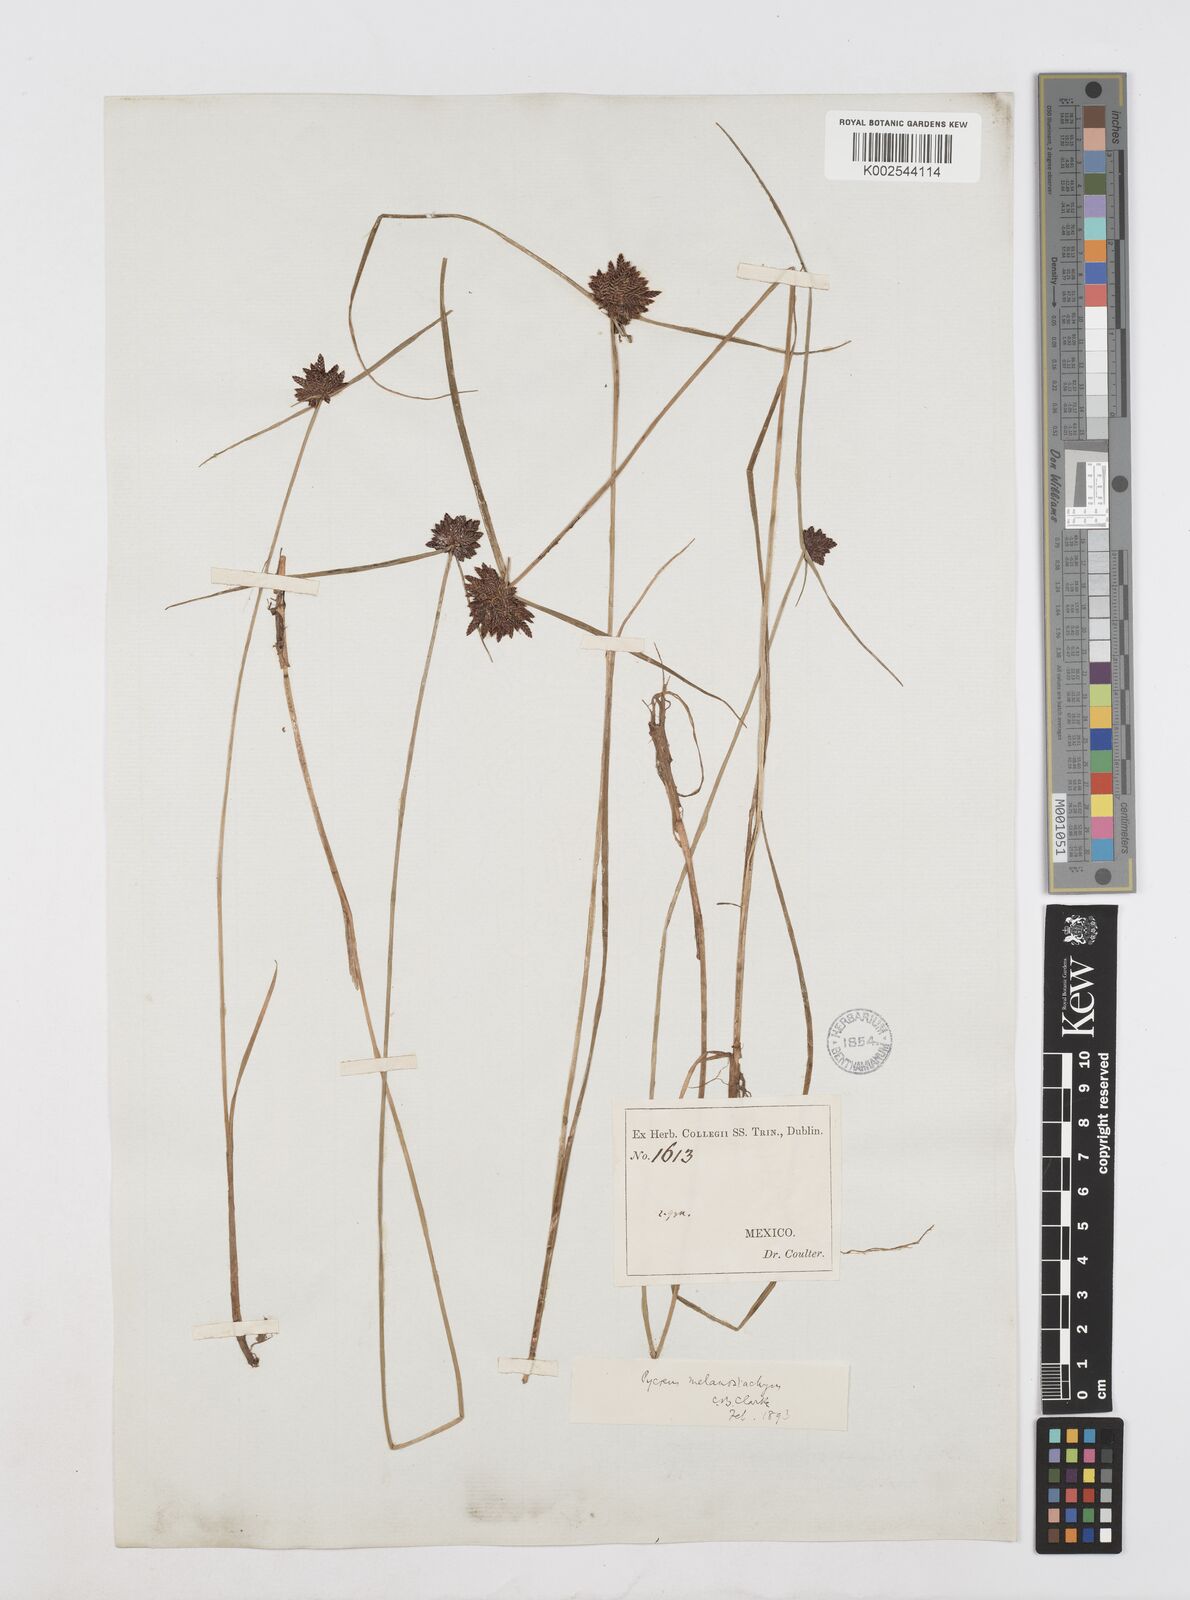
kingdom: Plantae
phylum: Tracheophyta
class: Liliopsida
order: Poales
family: Cyperaceae
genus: Cyperus
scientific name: Cyperus melanostachyus
